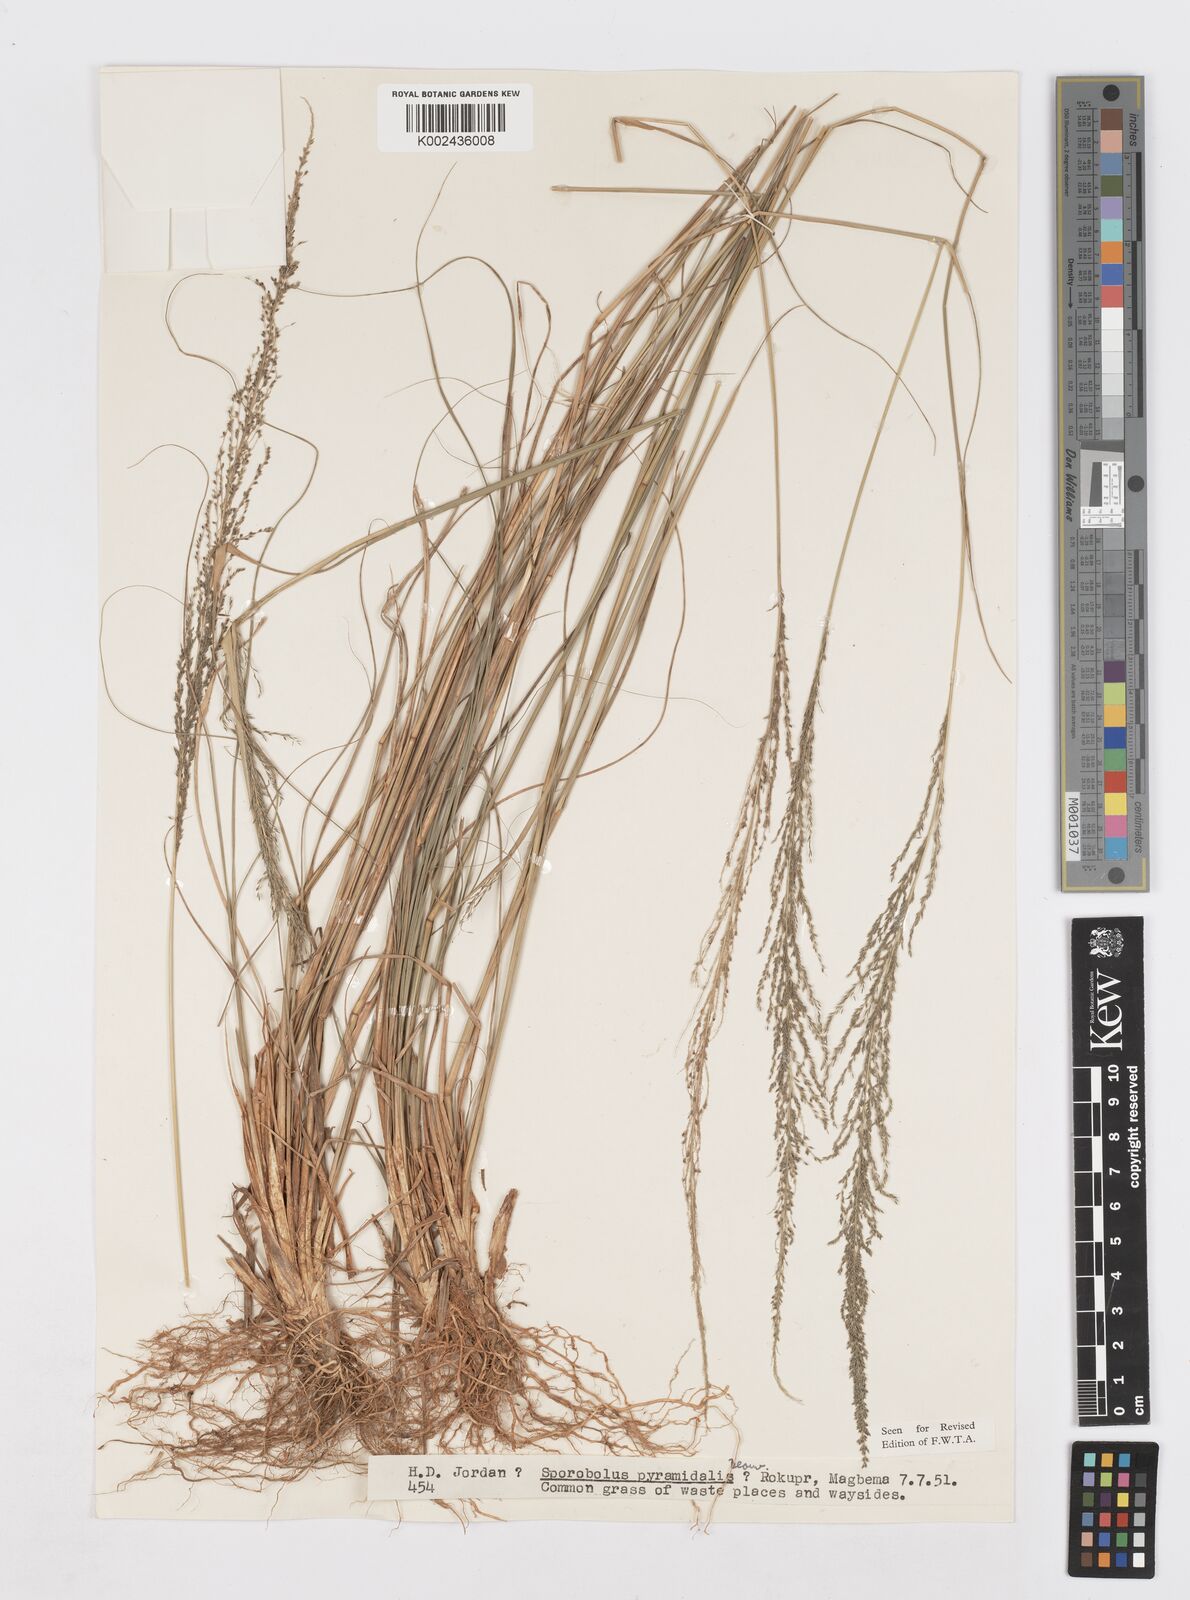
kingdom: Plantae
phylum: Tracheophyta
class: Liliopsida
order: Poales
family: Poaceae
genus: Sporobolus
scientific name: Sporobolus pyramidalis
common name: West indian dropseed
